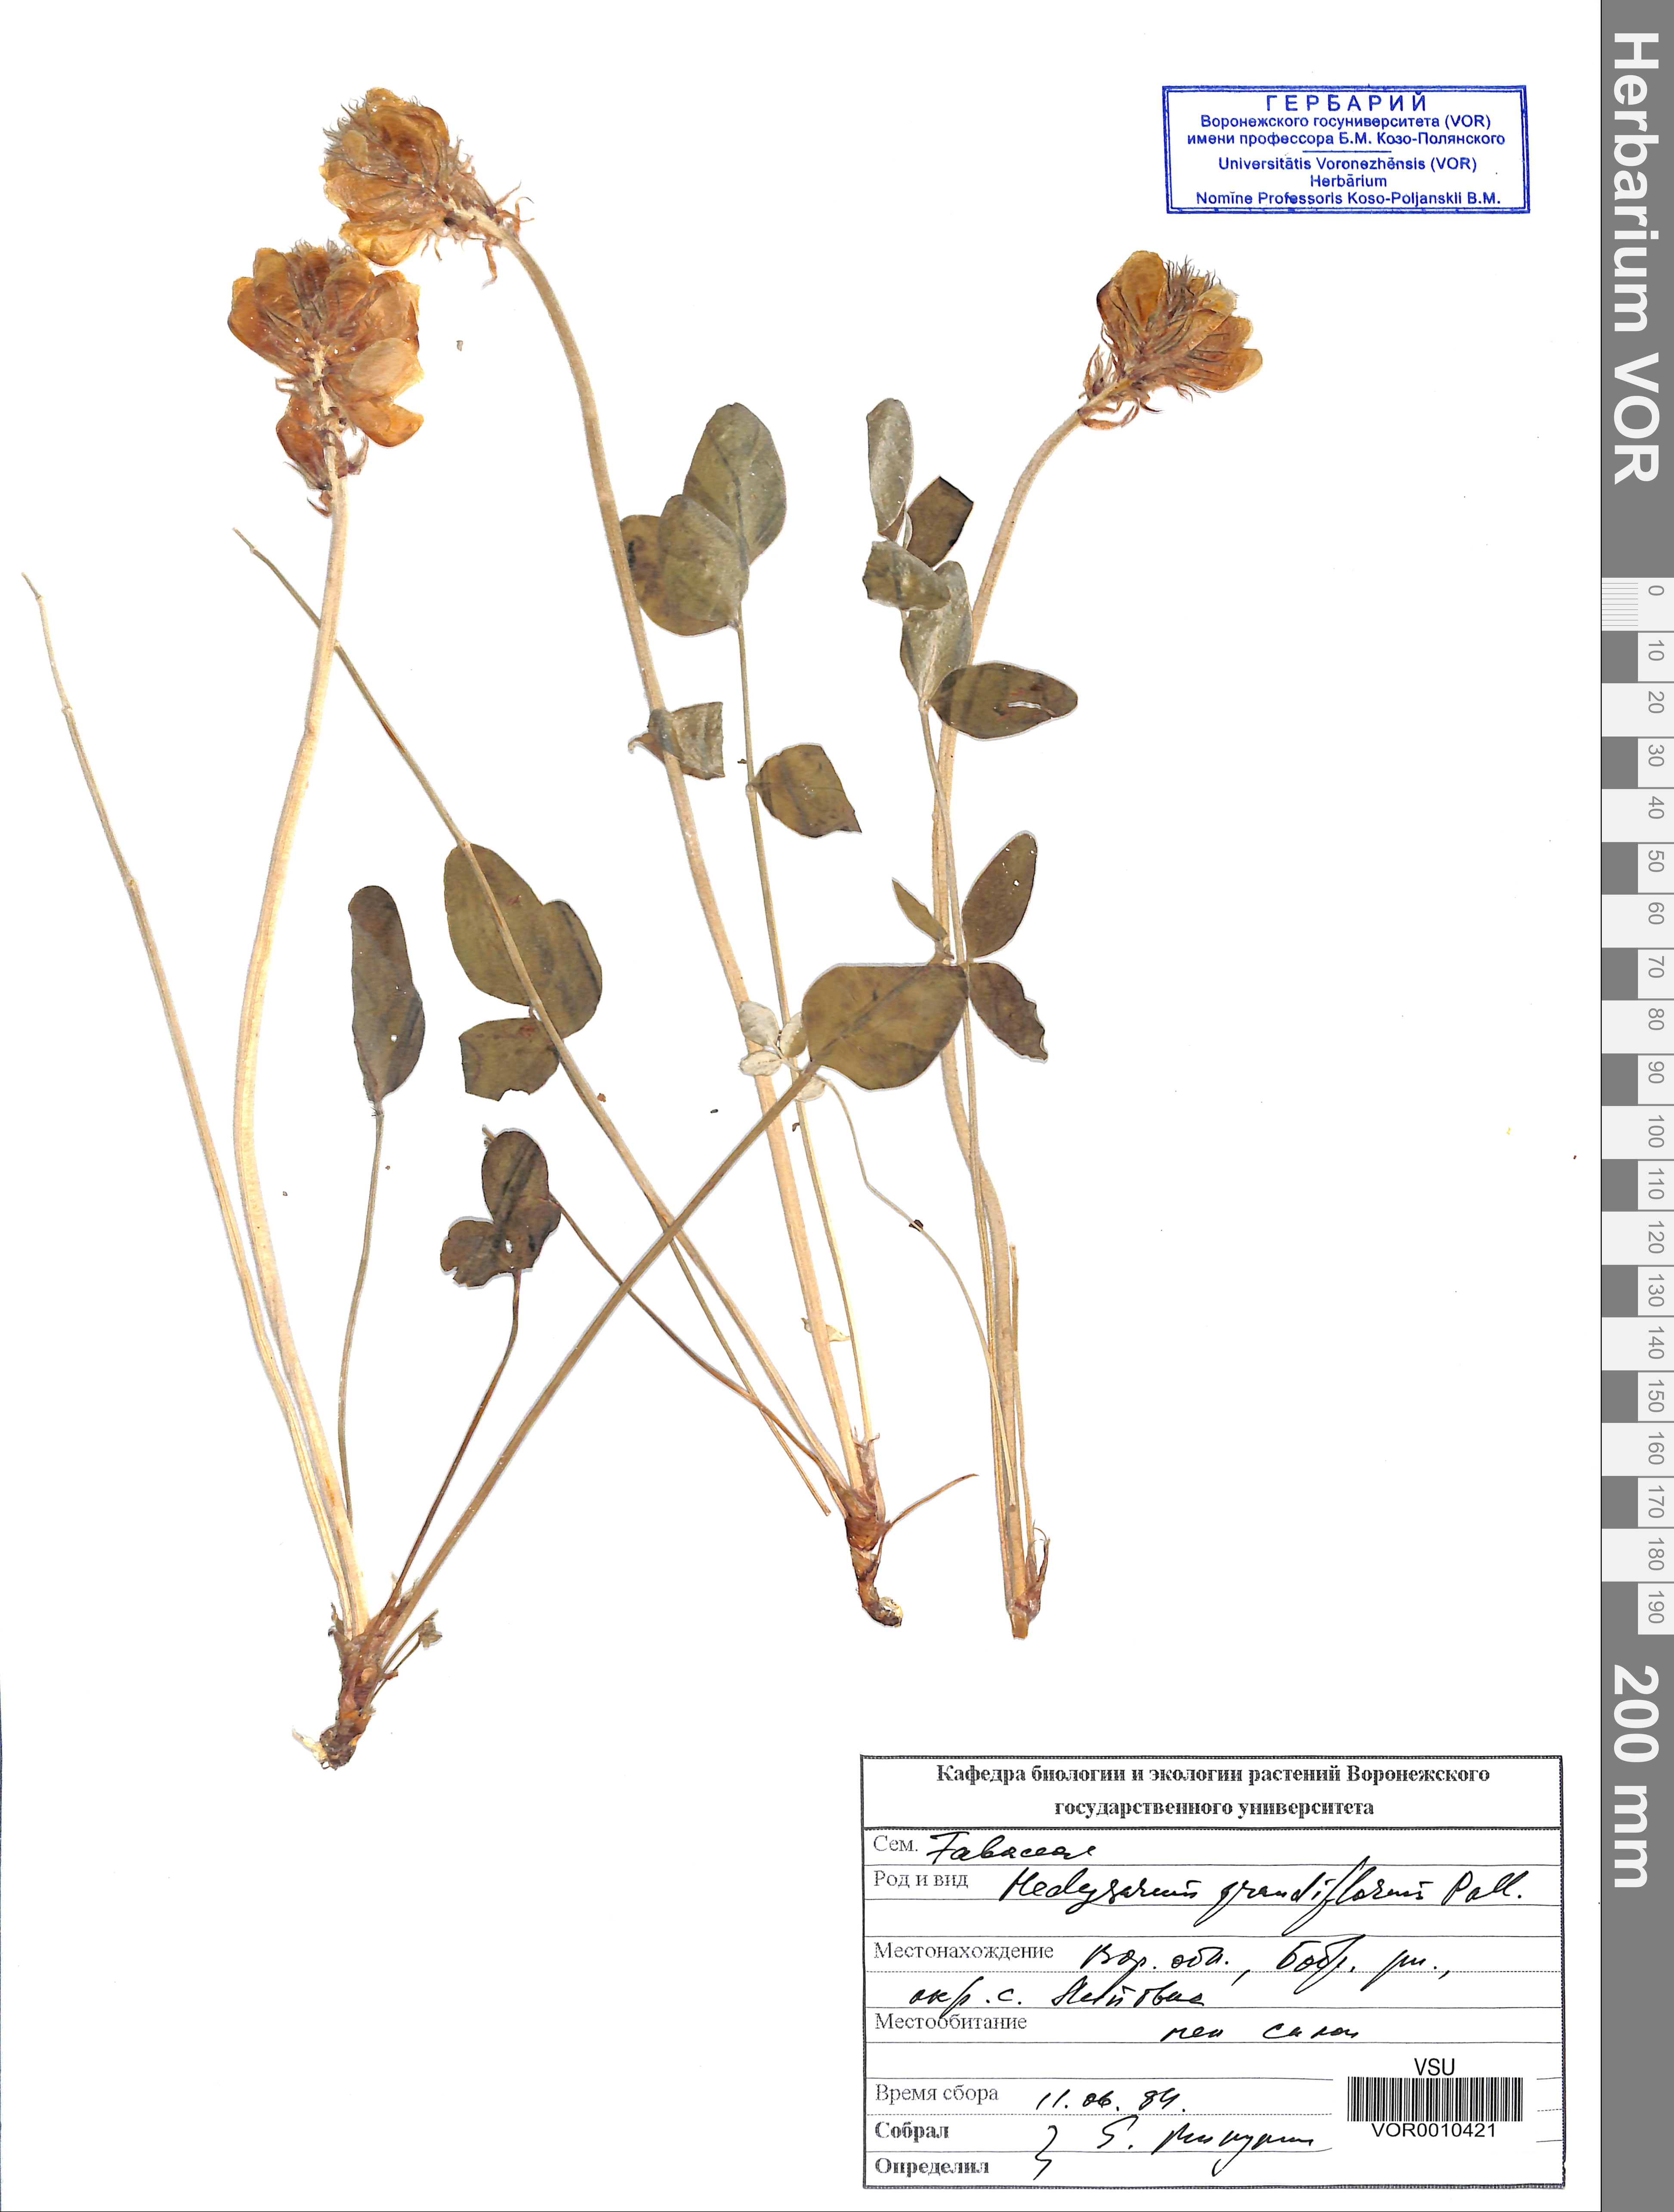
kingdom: Plantae
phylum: Tracheophyta
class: Magnoliopsida
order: Fabales
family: Fabaceae
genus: Hedysarum
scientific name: Hedysarum grandiflorum
